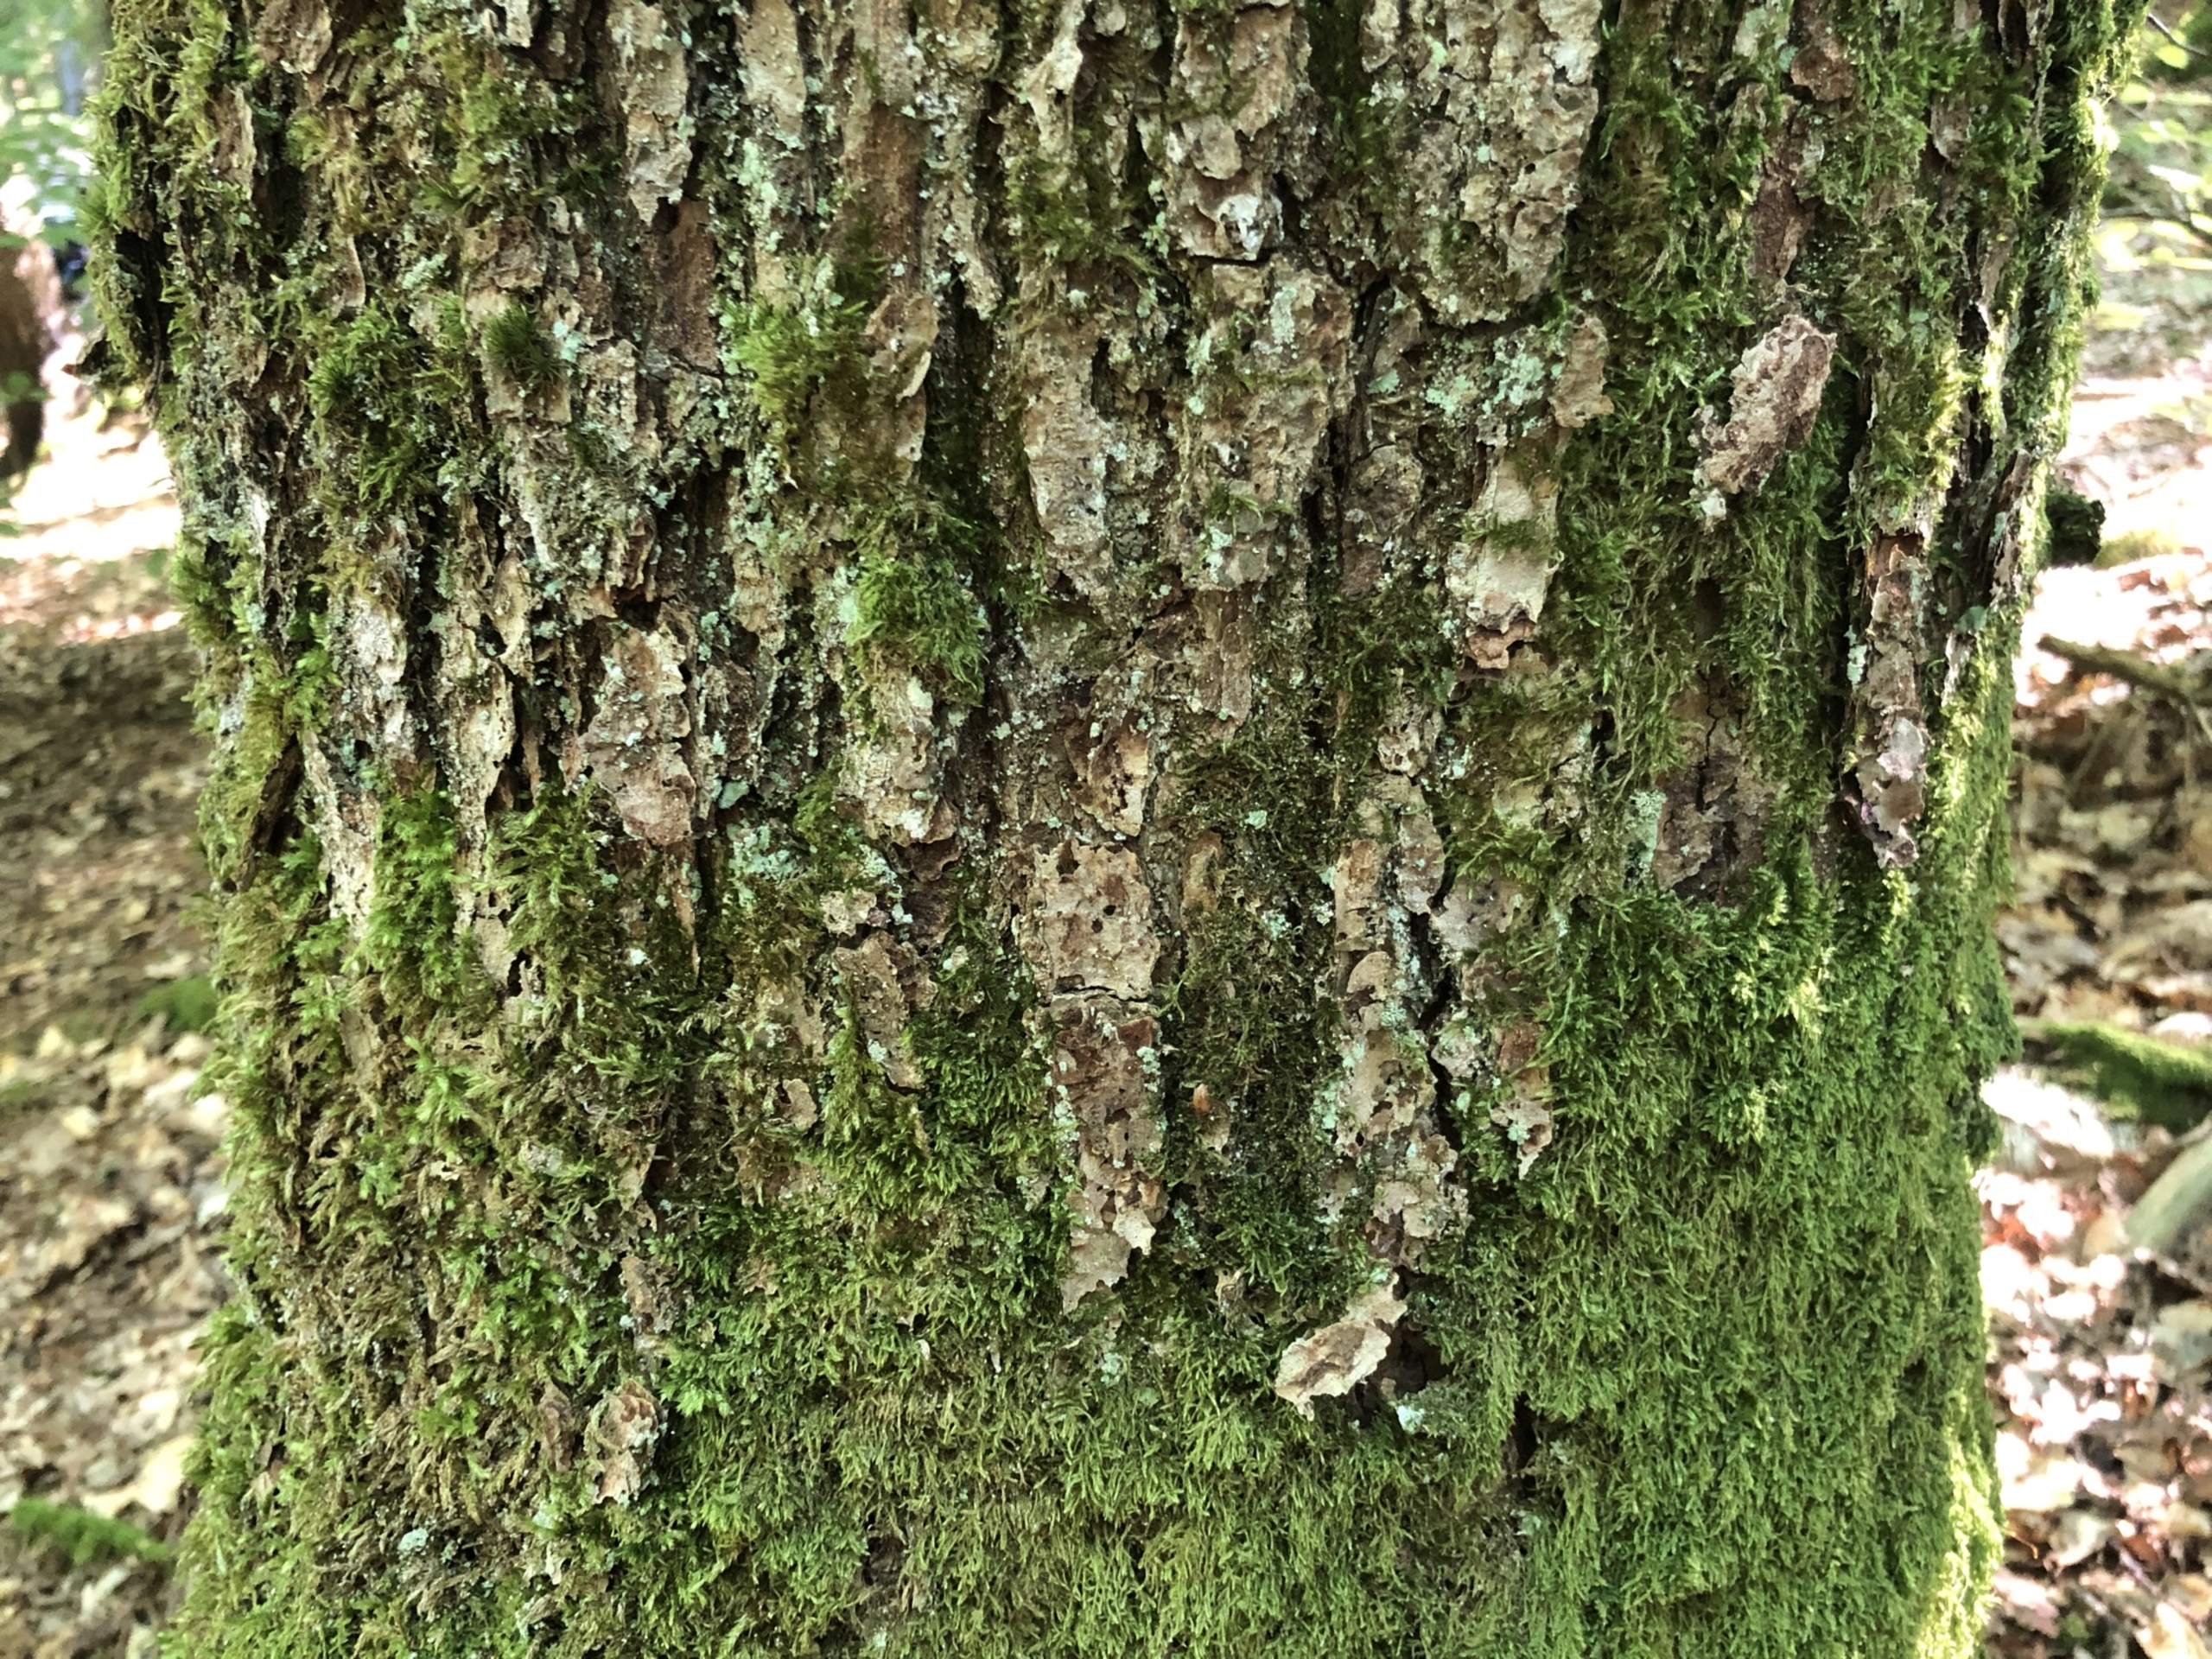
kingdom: Plantae
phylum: Bryophyta
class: Bryopsida
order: Hypnales
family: Hypnaceae
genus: Hypnum
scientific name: Hypnum cupressiforme
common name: Almindelig cypresmos
